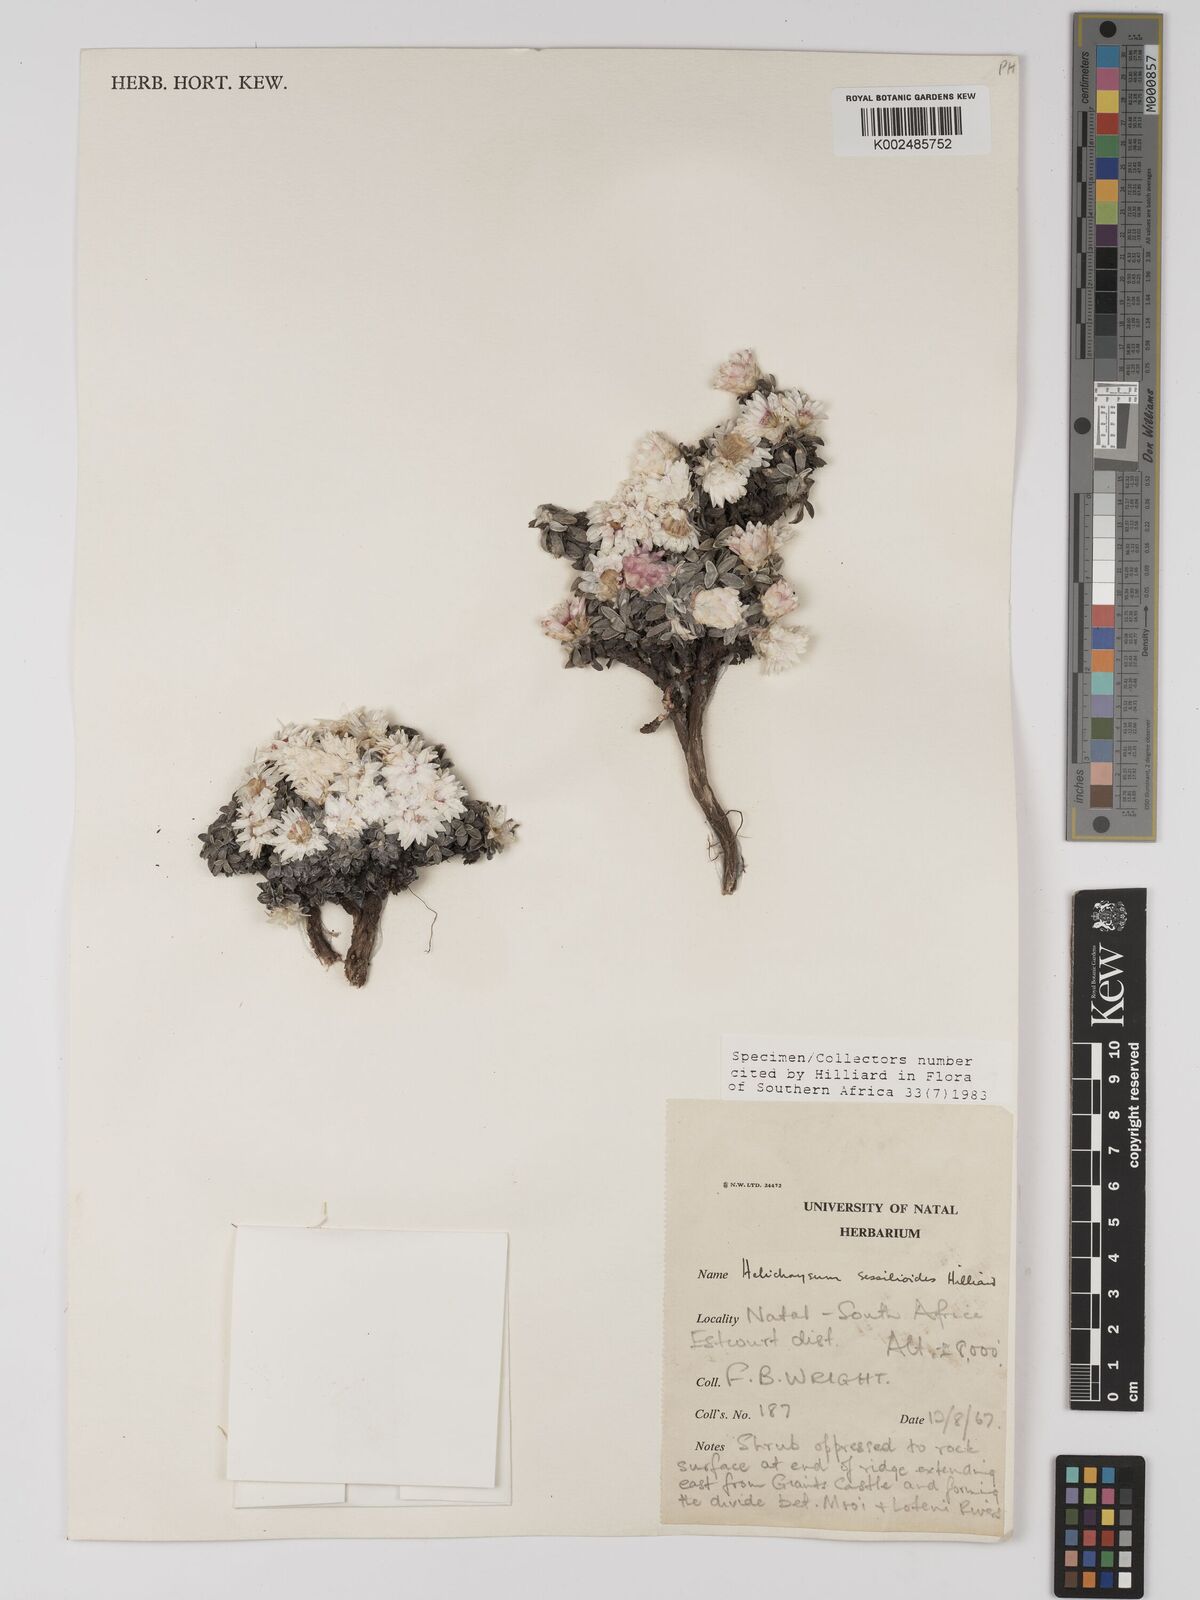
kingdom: Plantae
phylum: Tracheophyta
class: Magnoliopsida
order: Asterales
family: Asteraceae
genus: Helichrysum
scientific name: Helichrysum sessilioides
